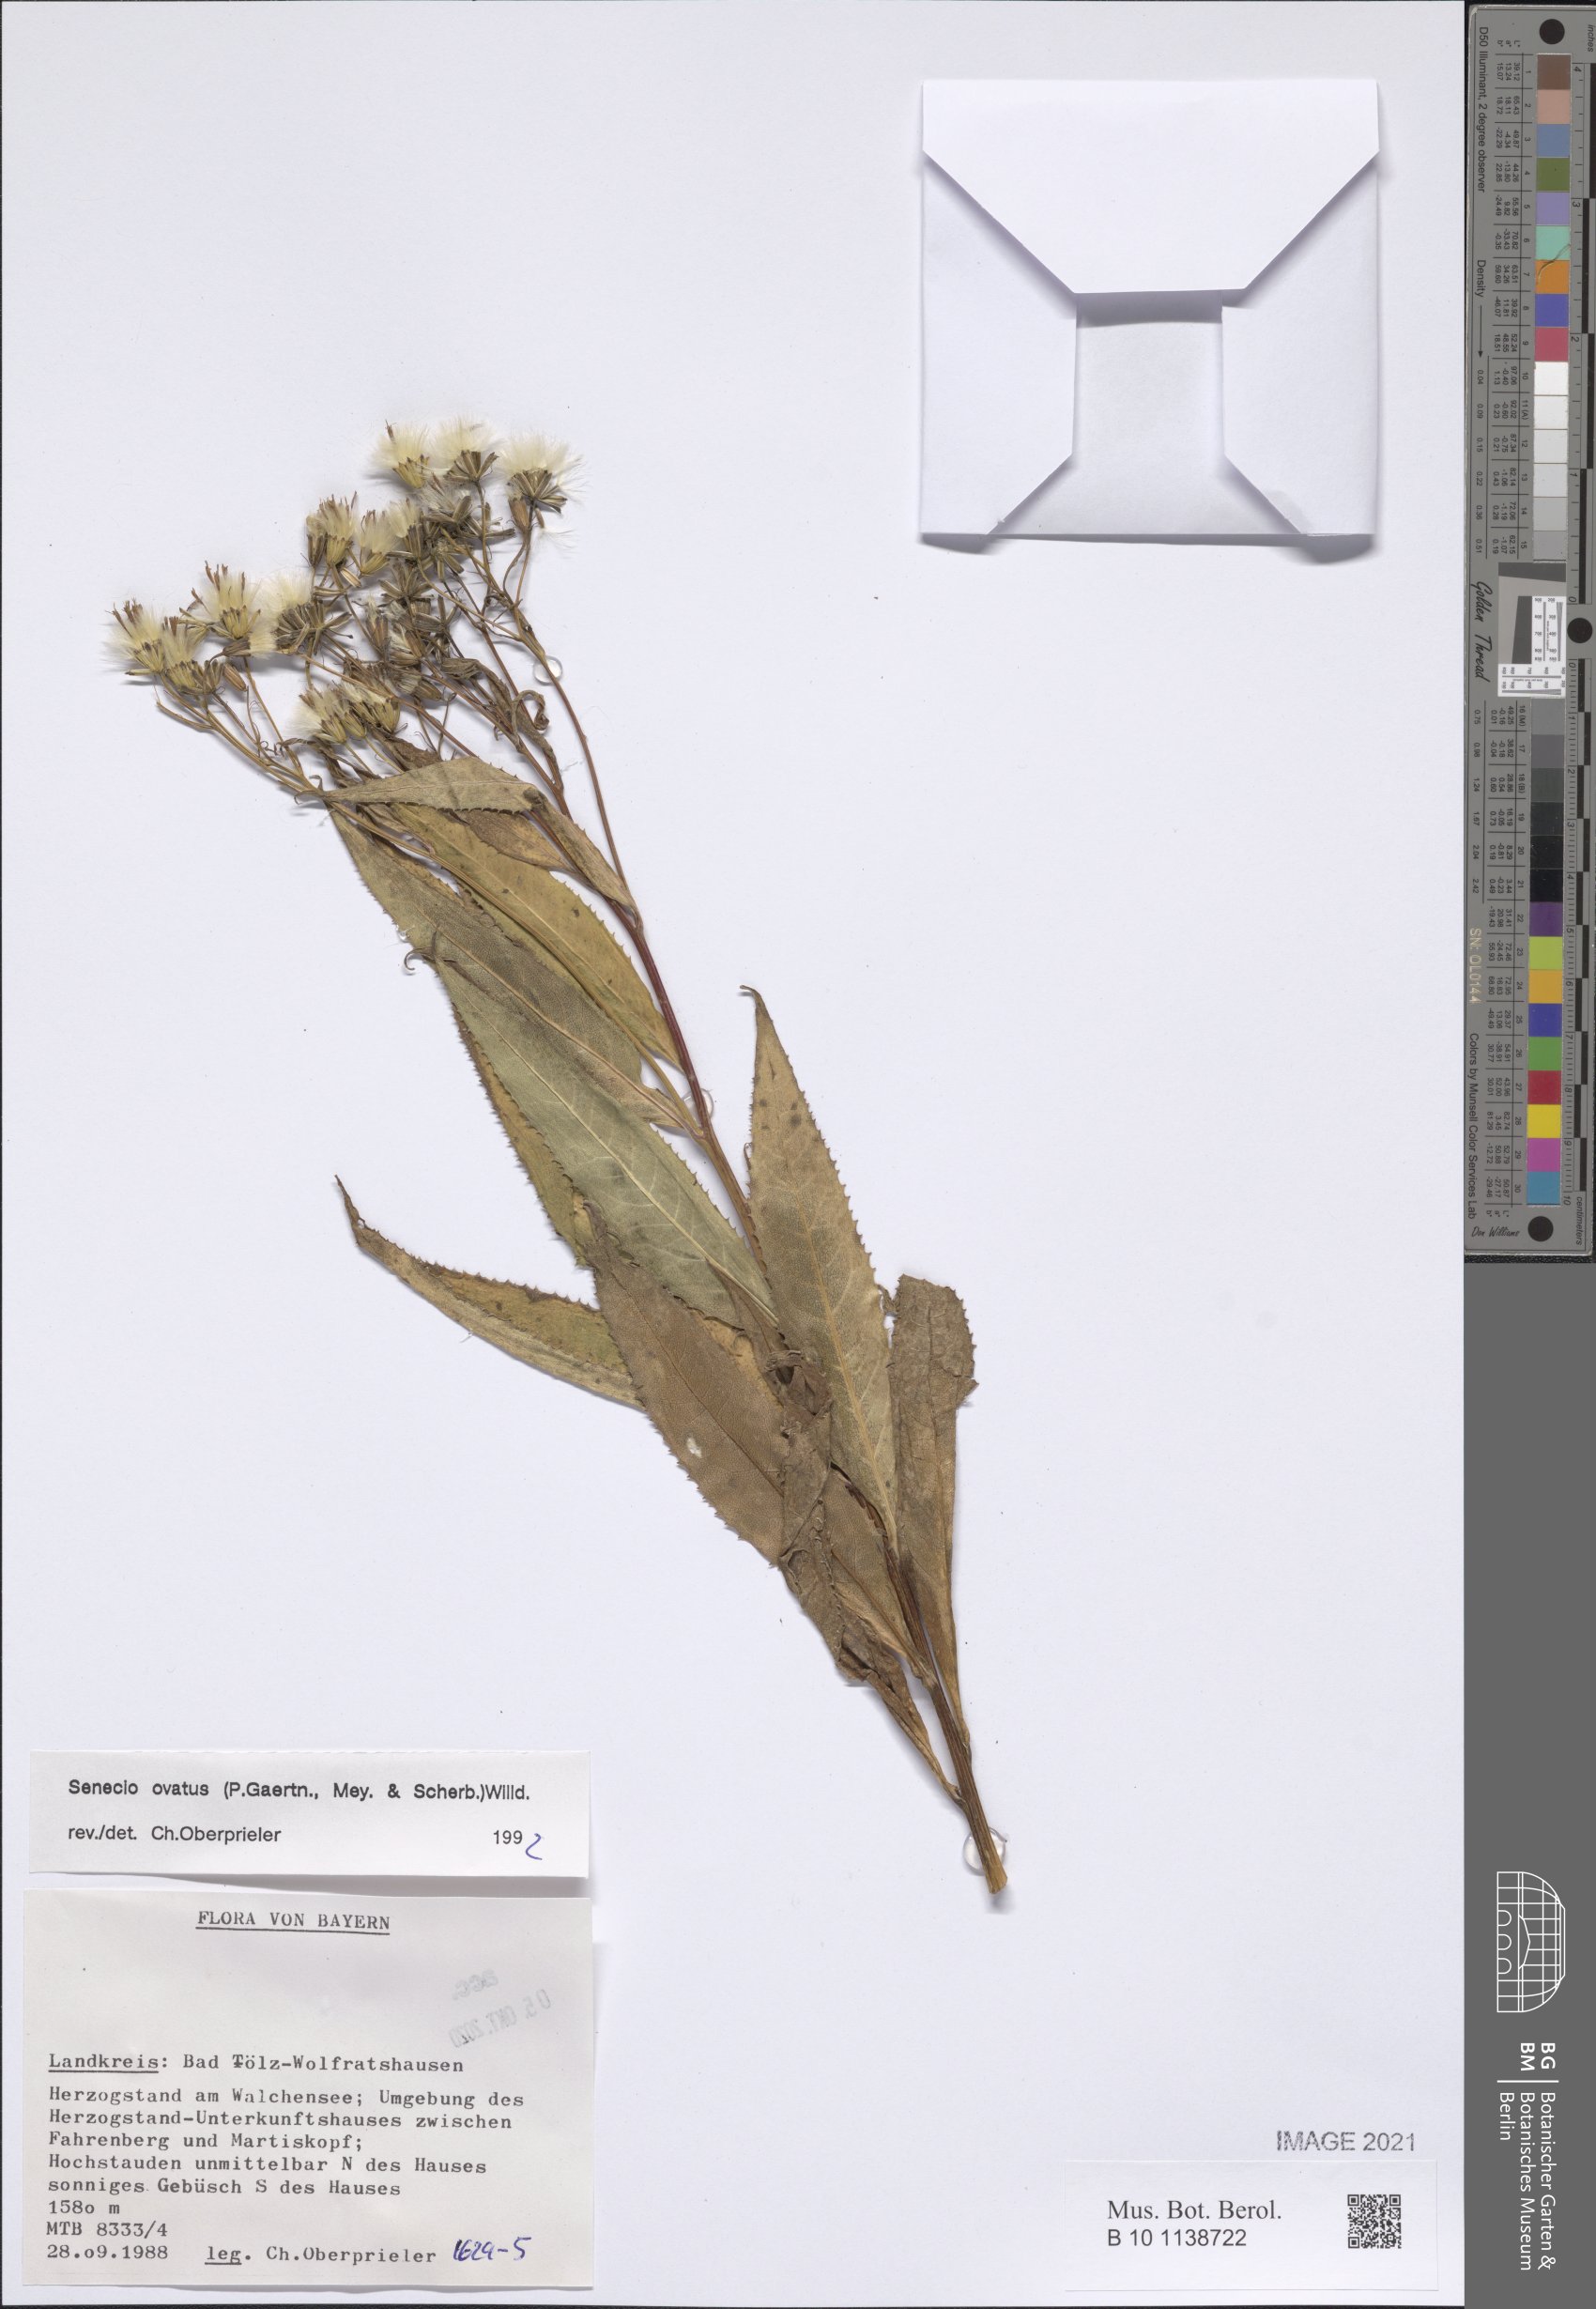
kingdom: Plantae
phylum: Tracheophyta
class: Magnoliopsida
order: Asterales
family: Asteraceae
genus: Senecio
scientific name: Senecio ovatus
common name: Wood ragwort
